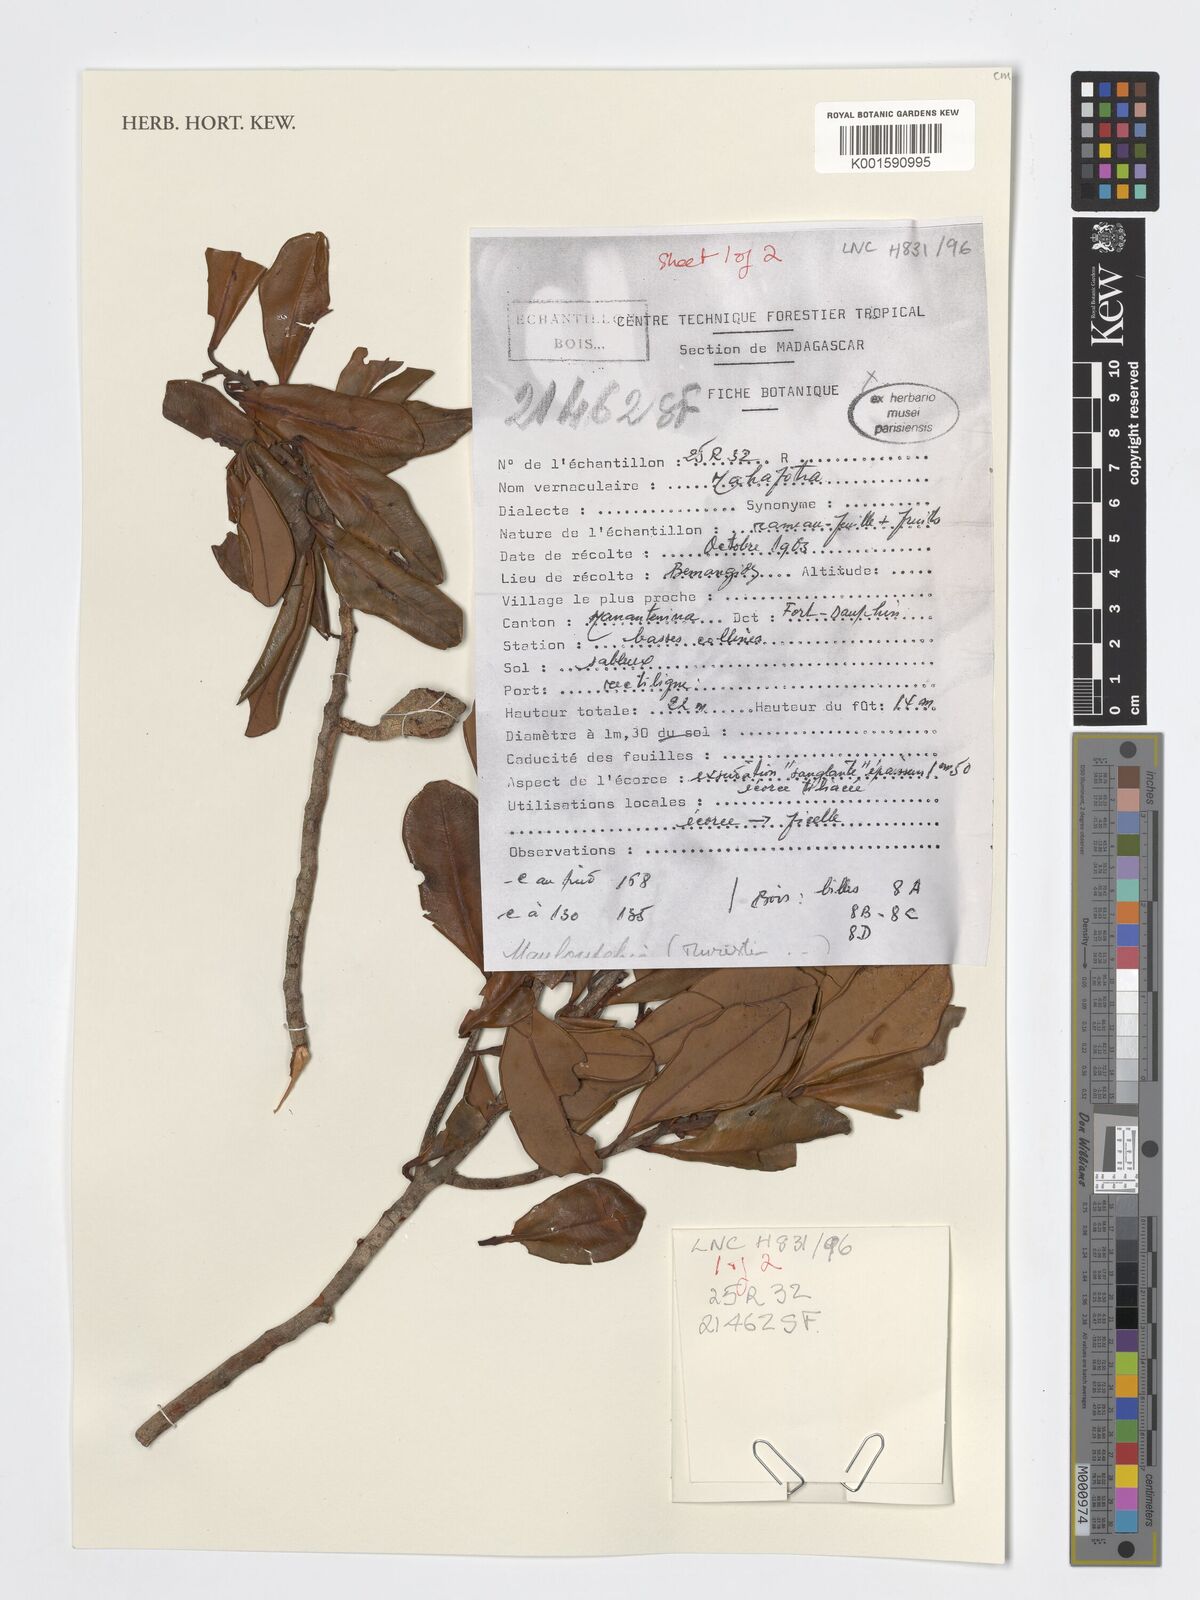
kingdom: Plantae
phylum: Tracheophyta
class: Magnoliopsida
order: Magnoliales
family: Myristicaceae
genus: Mauloutchia
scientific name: Mauloutchia
